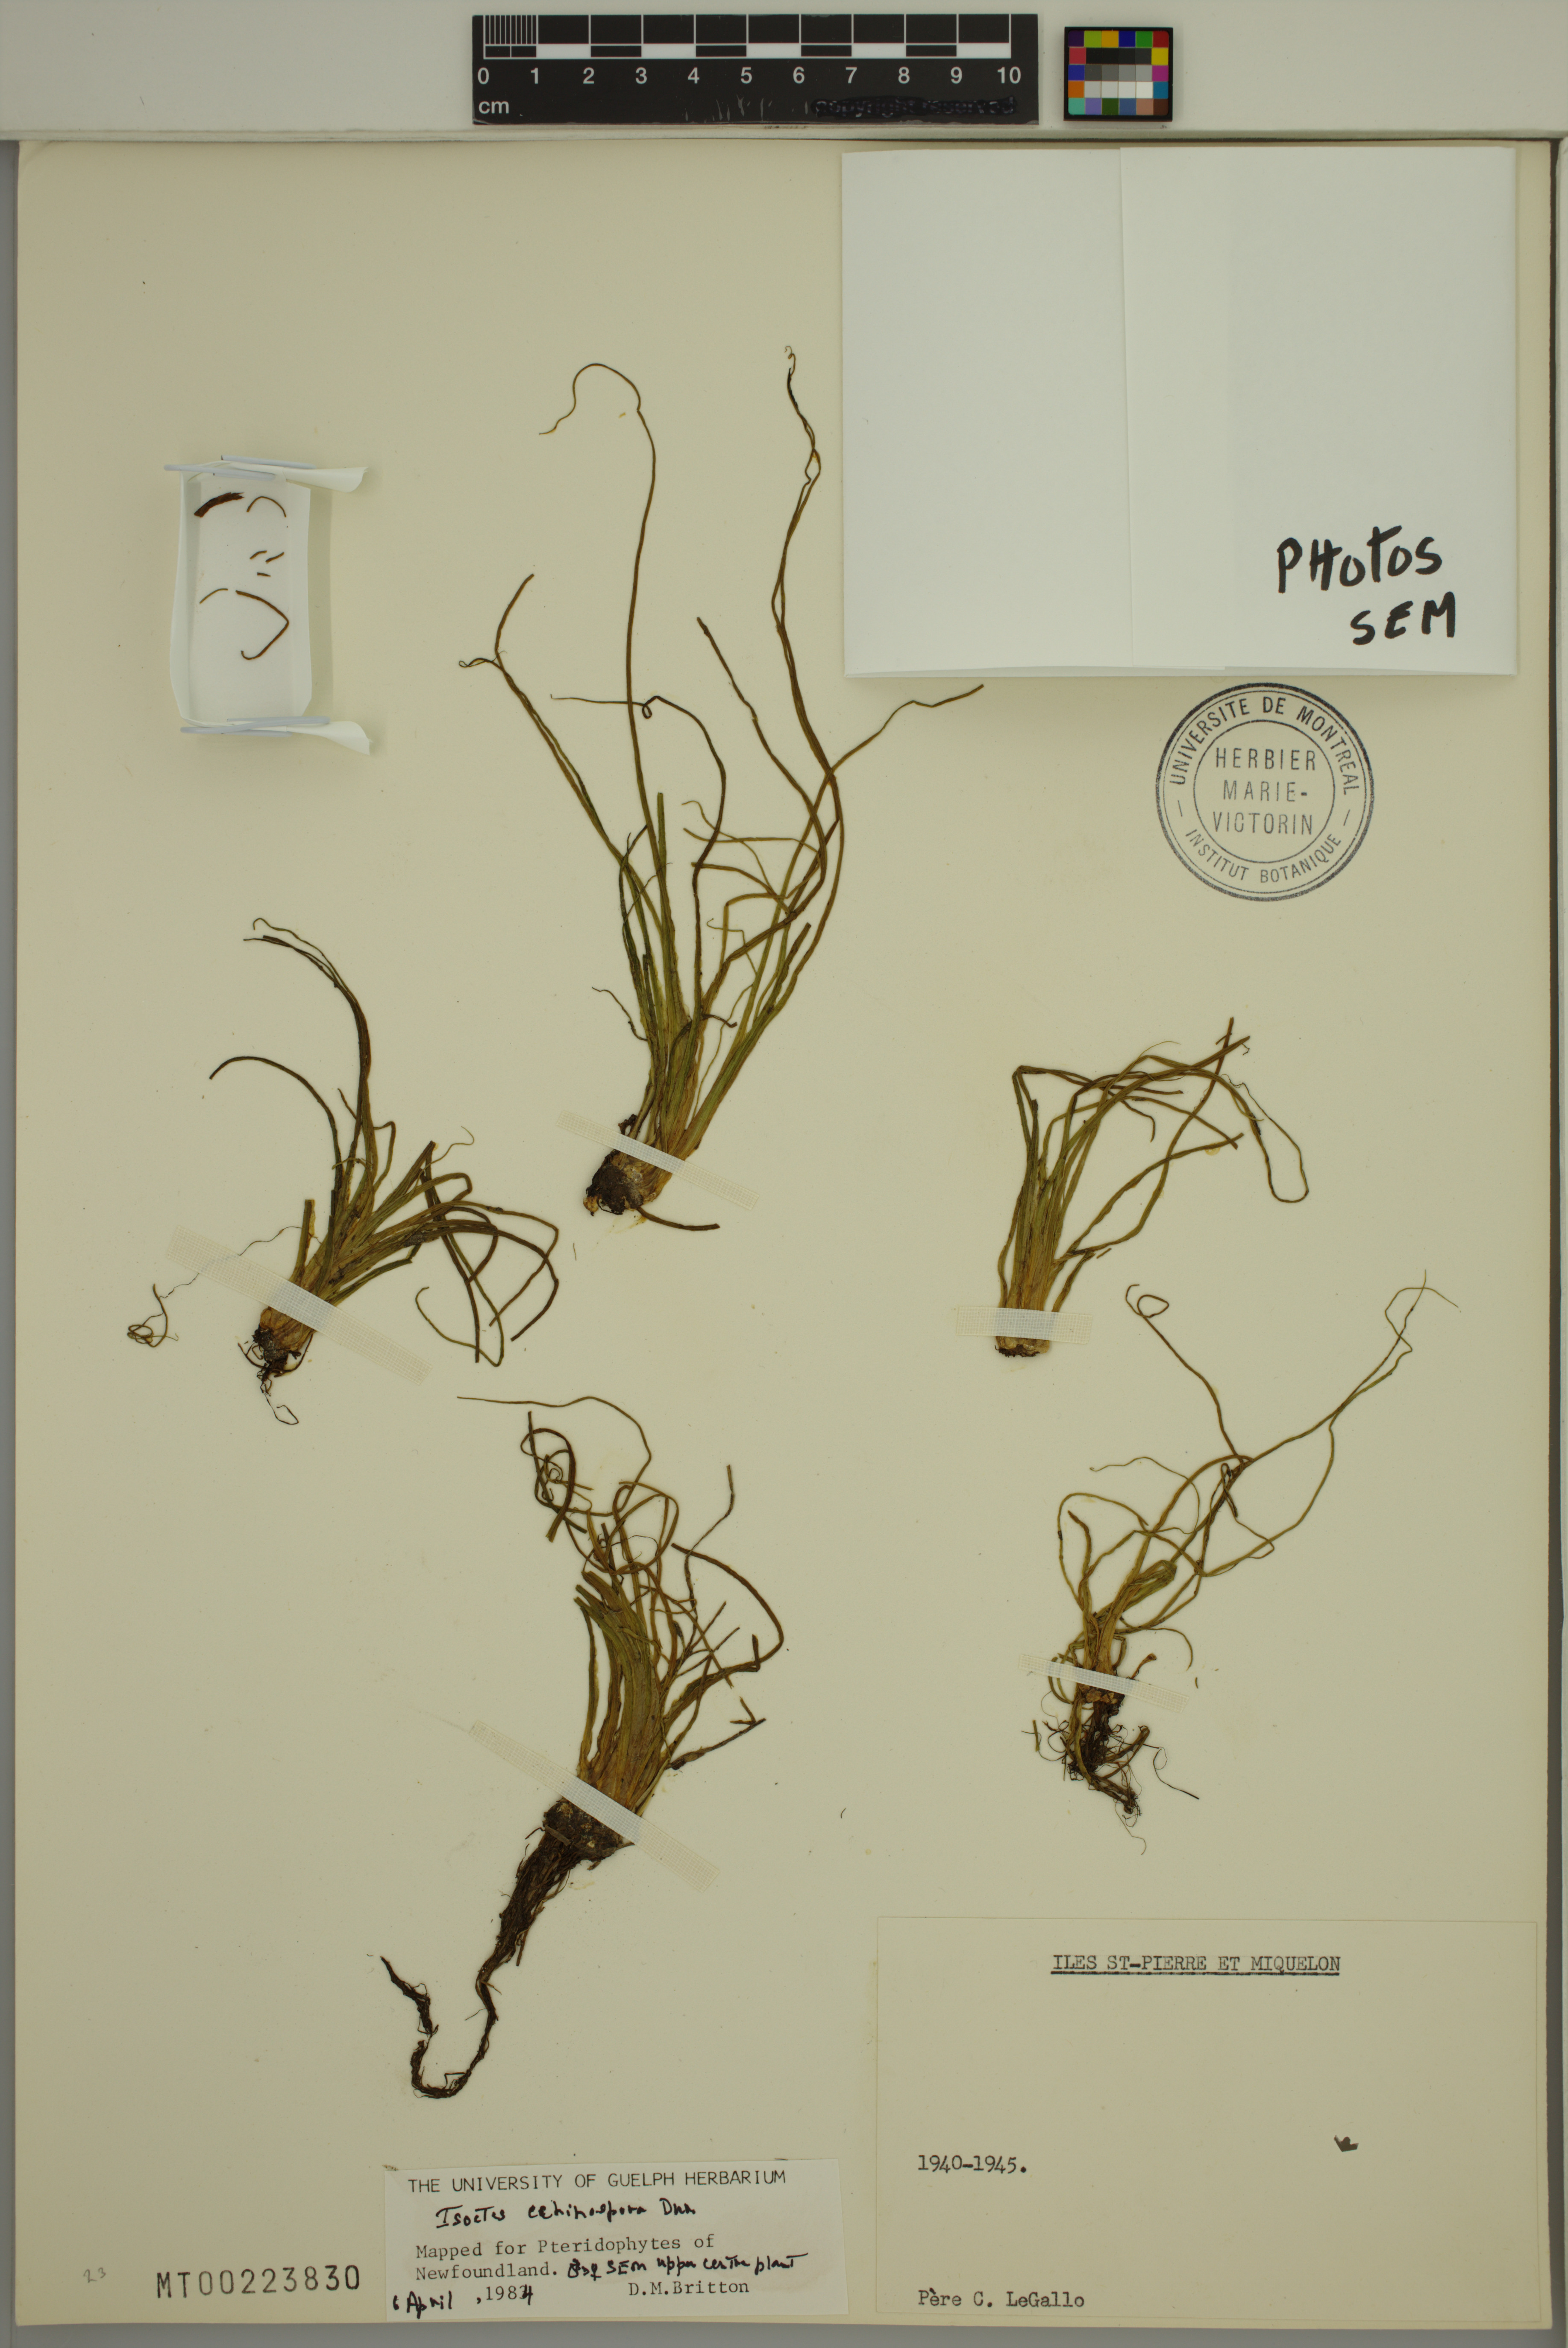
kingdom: Plantae
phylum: Tracheophyta
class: Lycopodiopsida
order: Isoetales
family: Isoetaceae
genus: Isoetes
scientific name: Isoetes echinospora
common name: Spring quillwort
